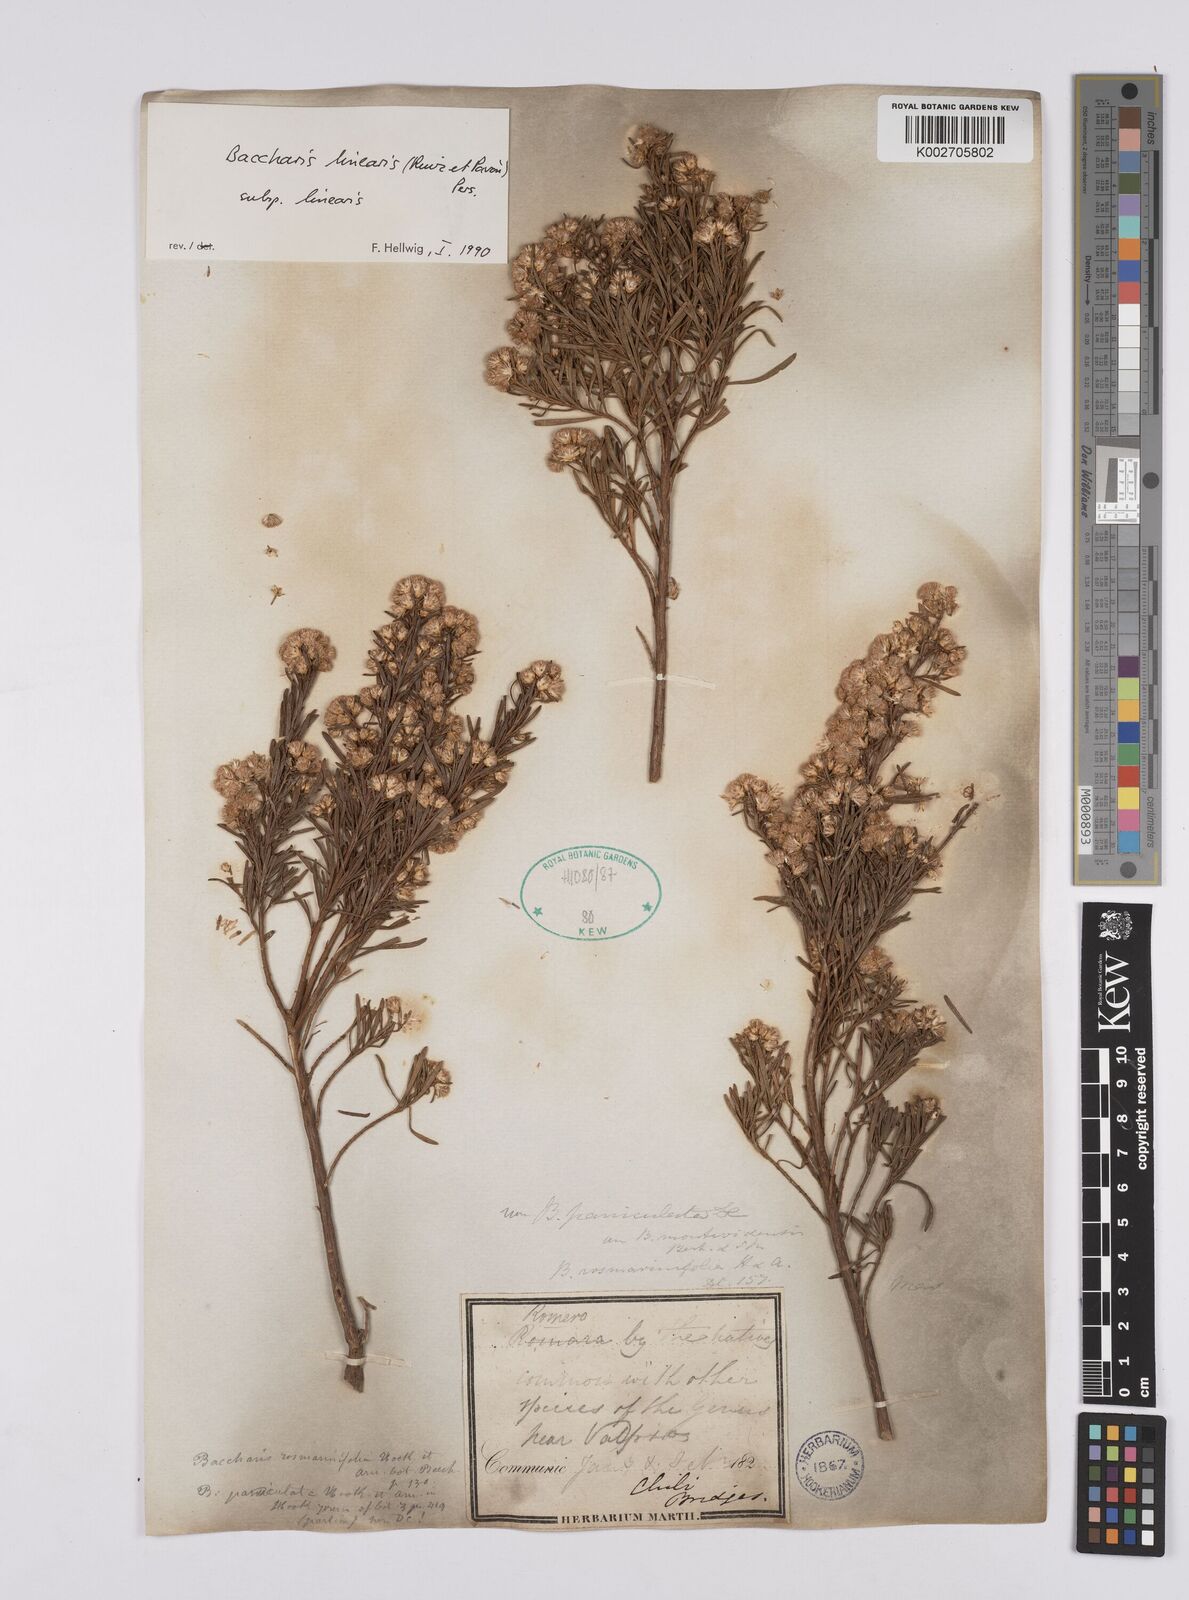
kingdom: Plantae
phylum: Tracheophyta
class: Magnoliopsida
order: Asterales
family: Asteraceae
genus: Baccharis
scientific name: Baccharis linearis
